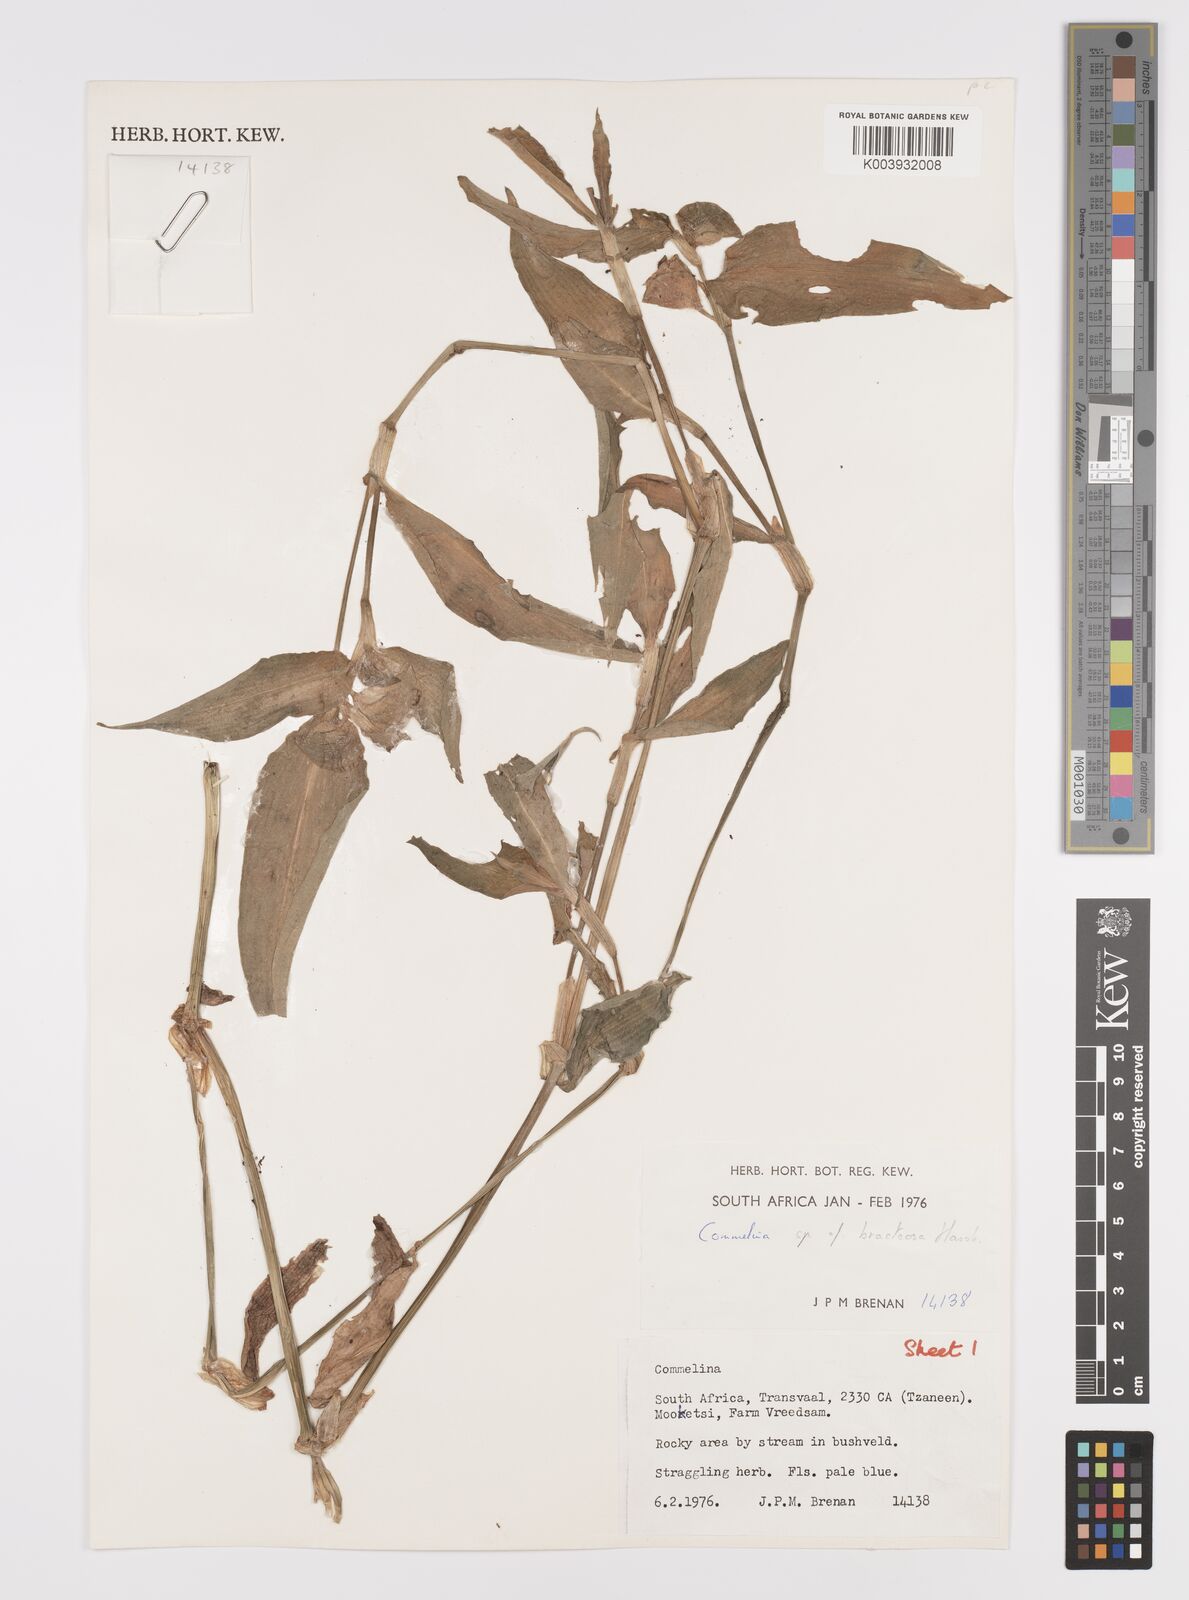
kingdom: Plantae
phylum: Tracheophyta
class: Liliopsida
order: Commelinales
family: Commelinaceae
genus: Commelina
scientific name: Commelina bracteosa
